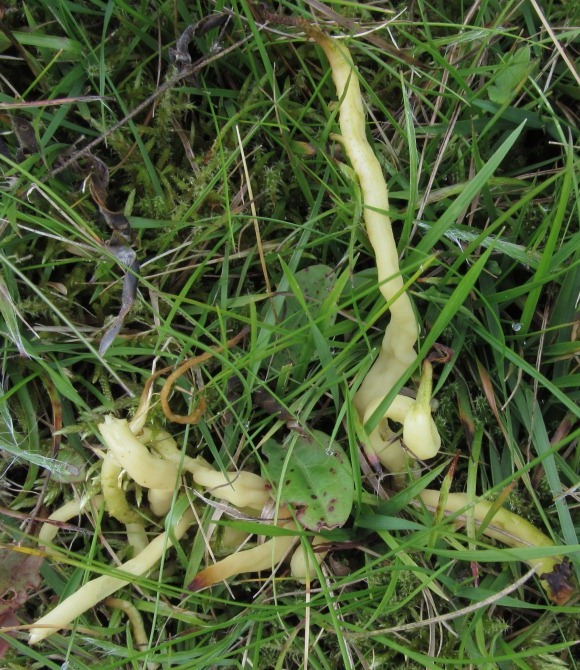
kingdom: Fungi
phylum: Basidiomycota
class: Agaricomycetes
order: Agaricales
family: Clavariaceae
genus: Clavaria
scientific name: Clavaria amoenoides
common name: bleggul køllesvamp
